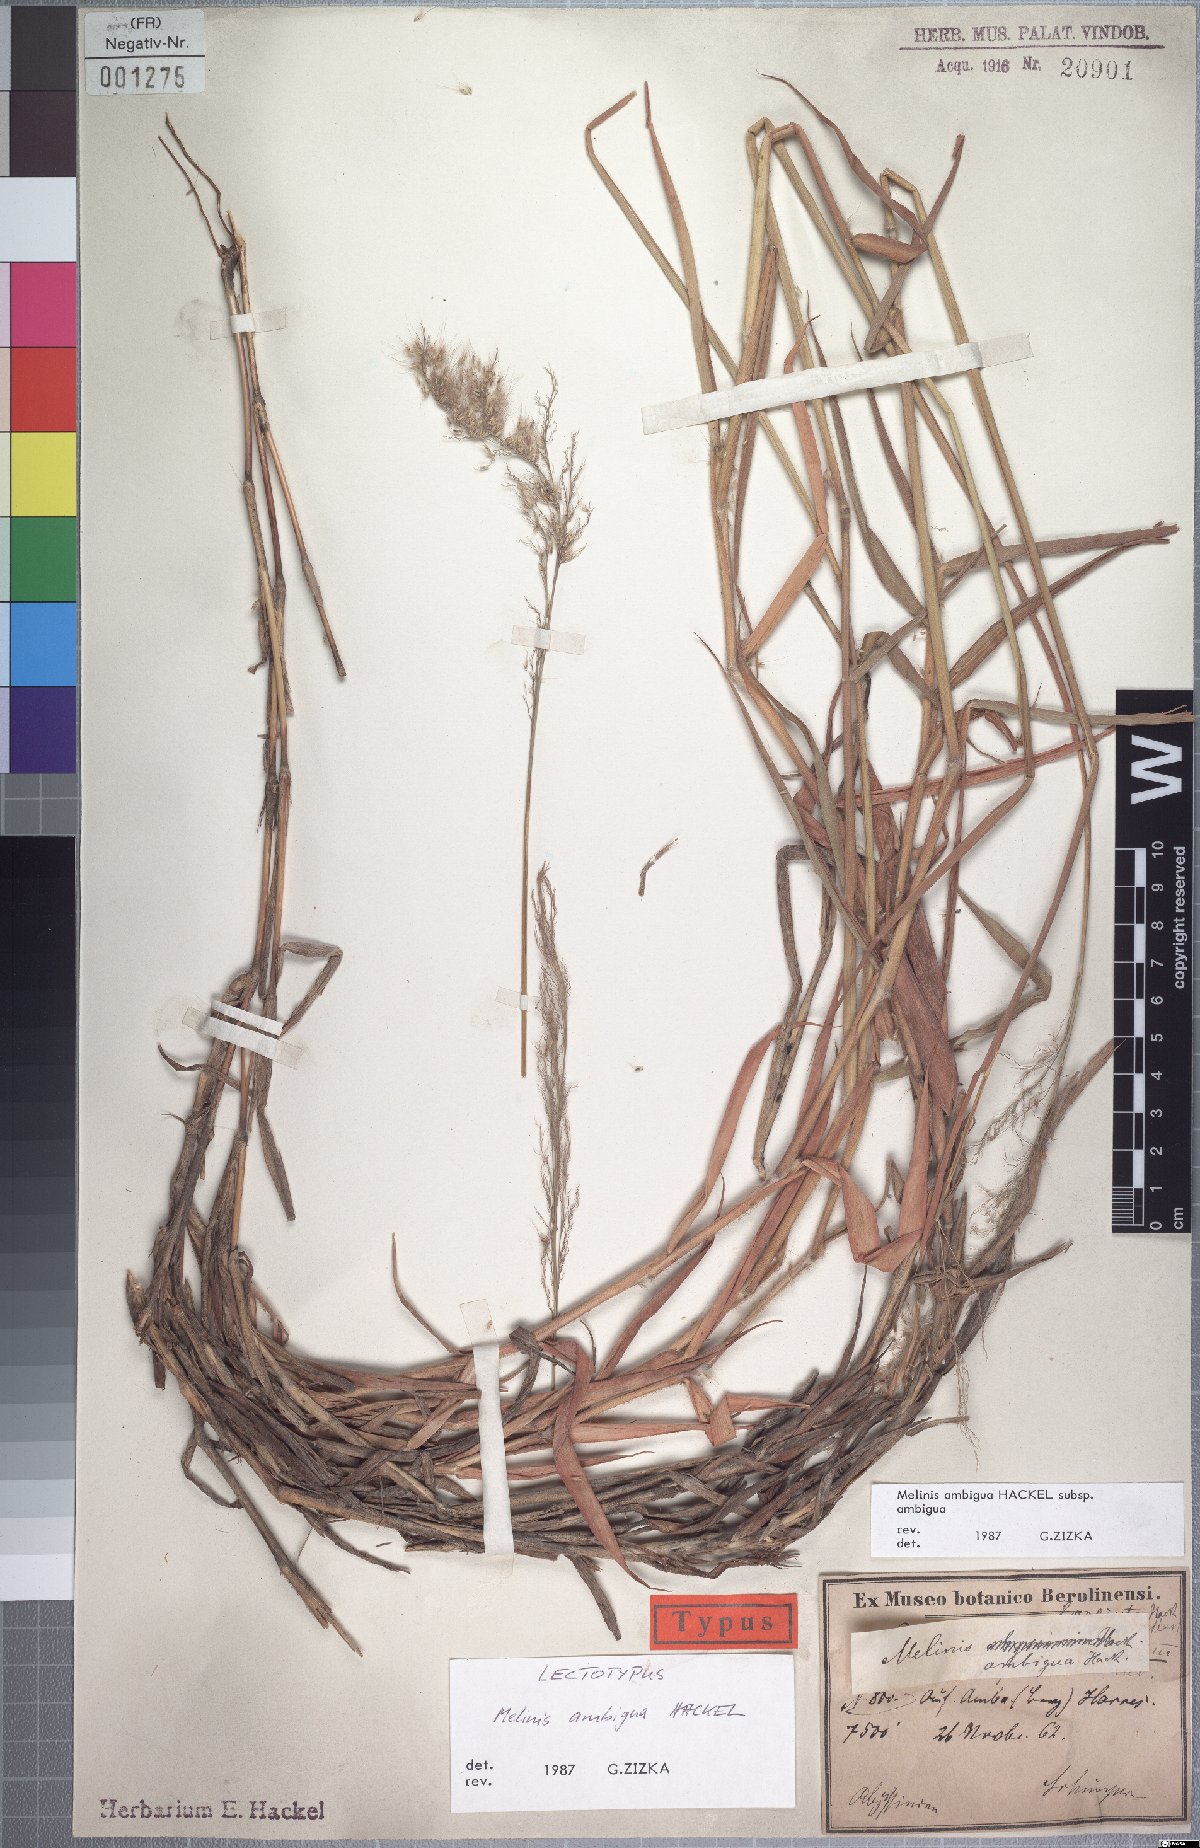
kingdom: Plantae
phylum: Tracheophyta
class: Liliopsida
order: Poales
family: Poaceae
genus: Melinis
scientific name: Melinis ambigua
